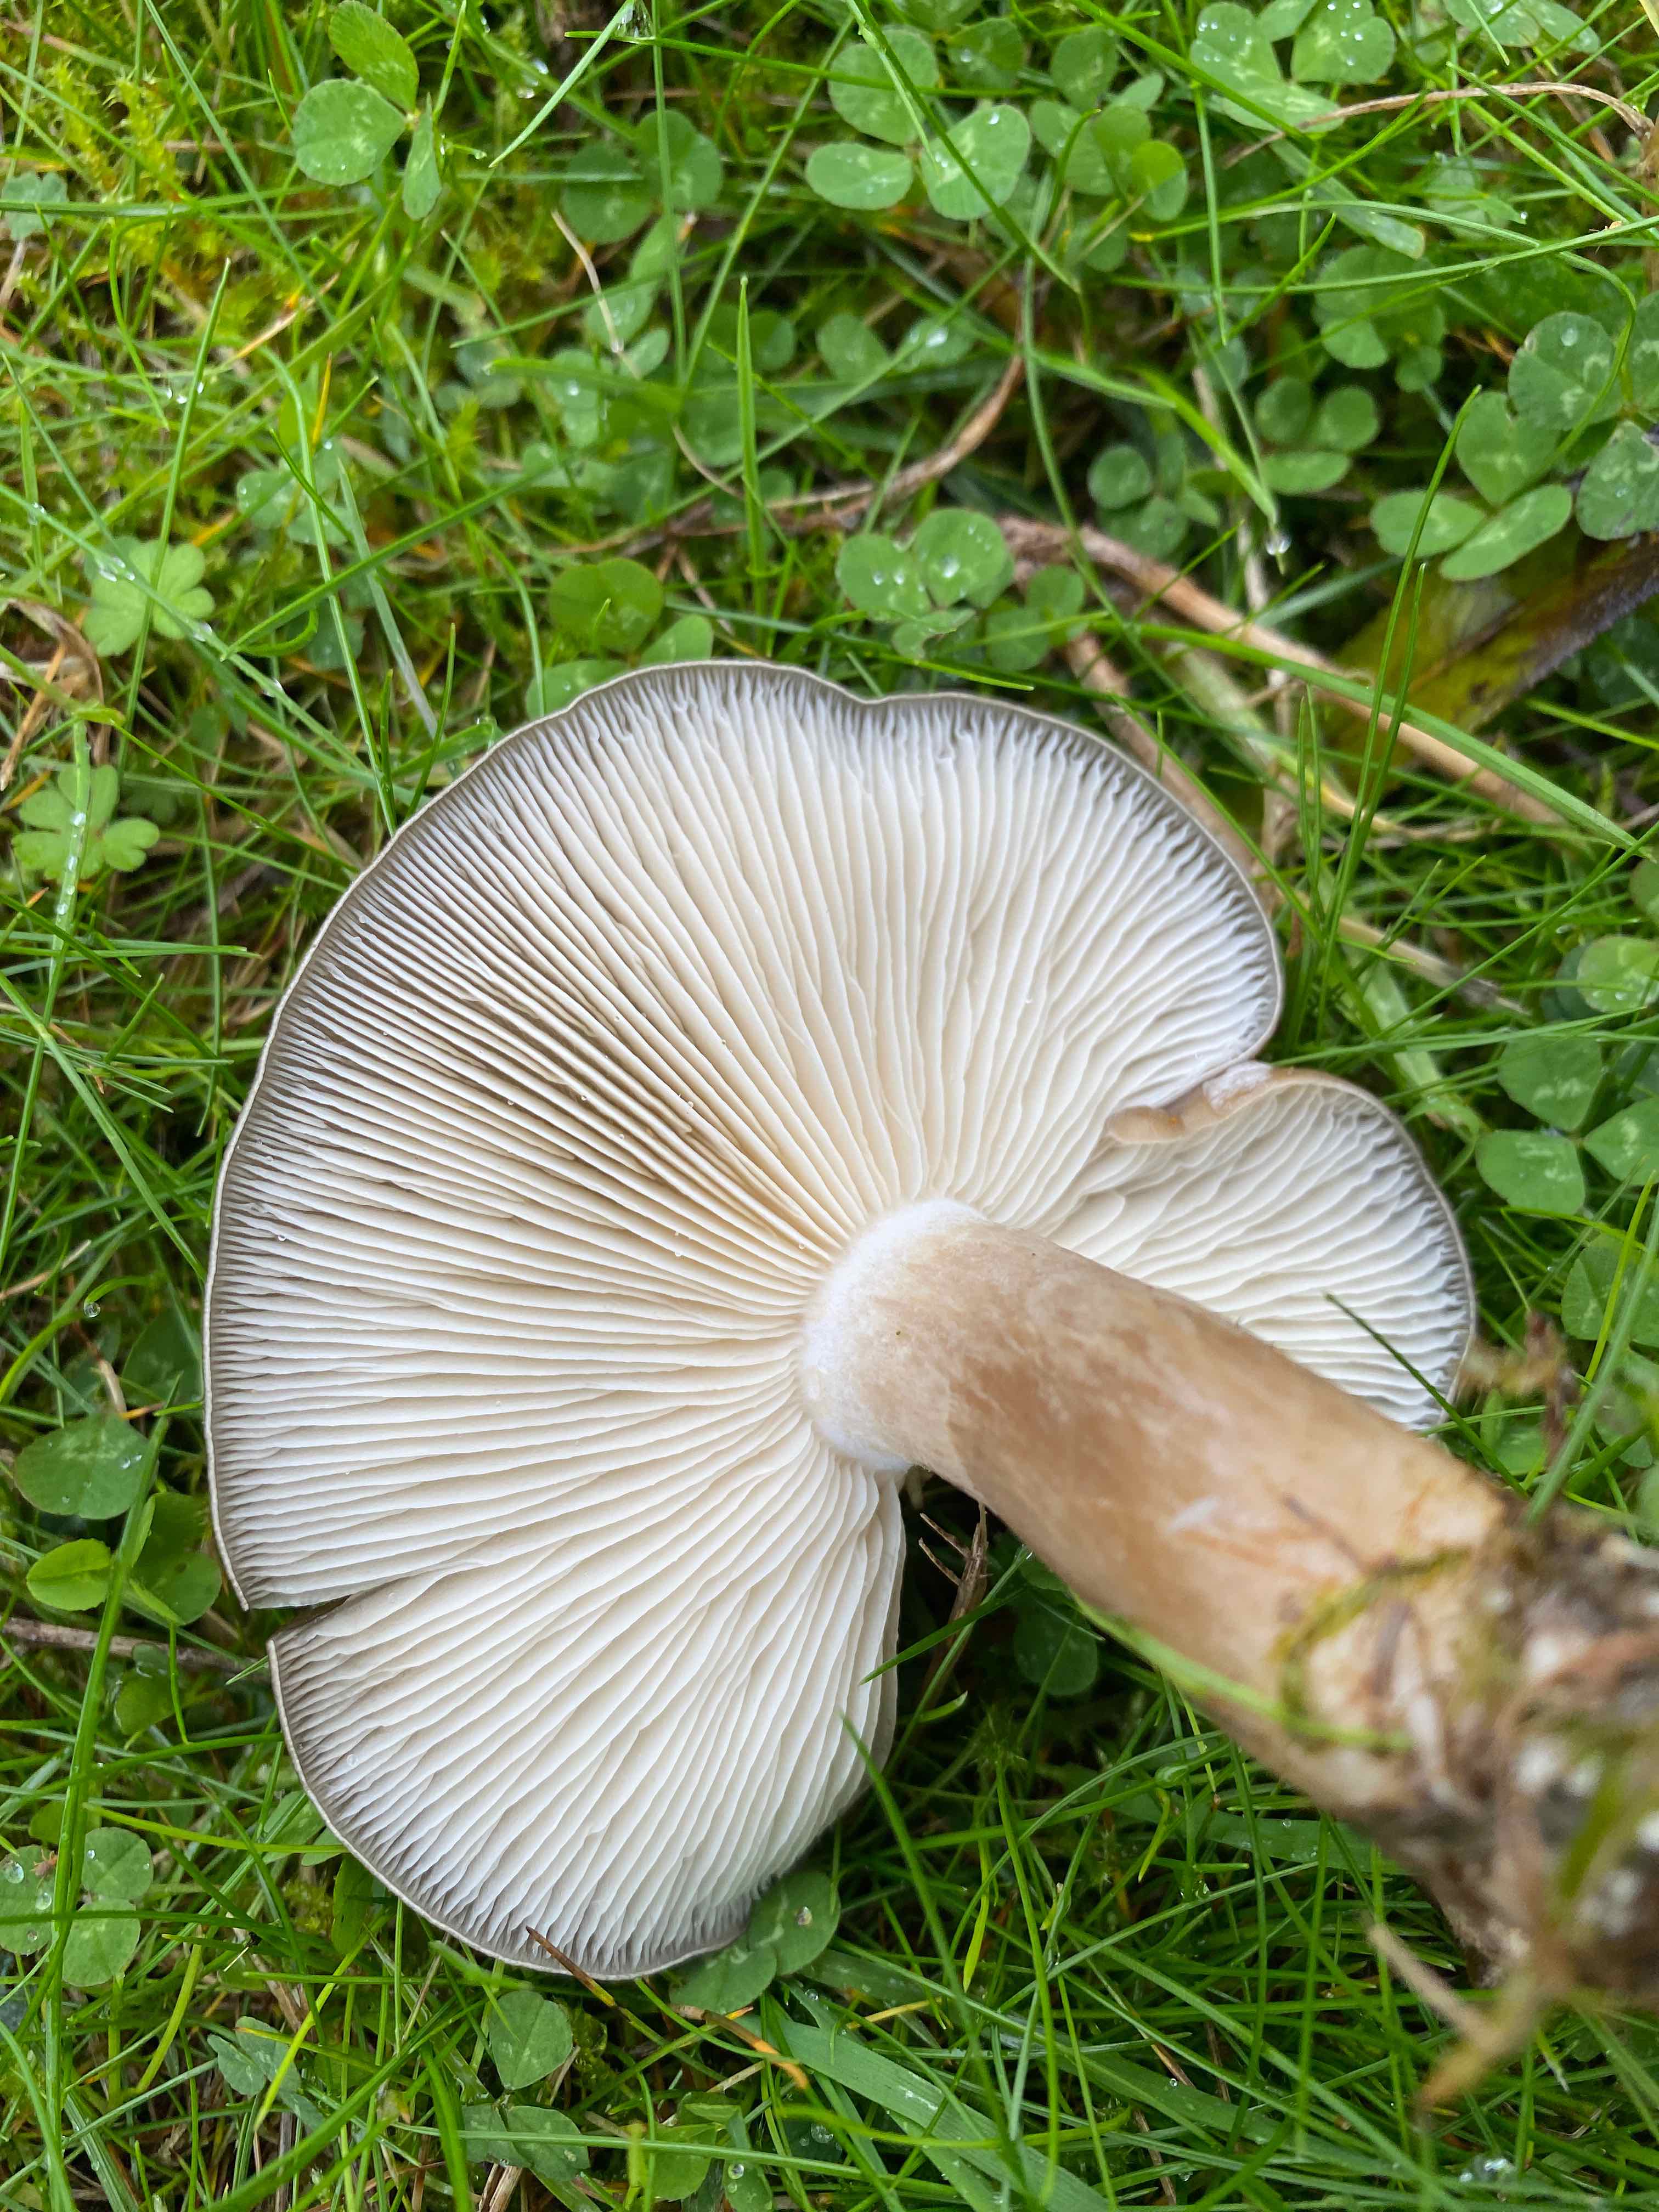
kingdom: Fungi
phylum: Basidiomycota
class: Agaricomycetes
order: Agaricales
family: Tricholomataceae
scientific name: Tricholomataceae
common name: ridderhatfamilien
